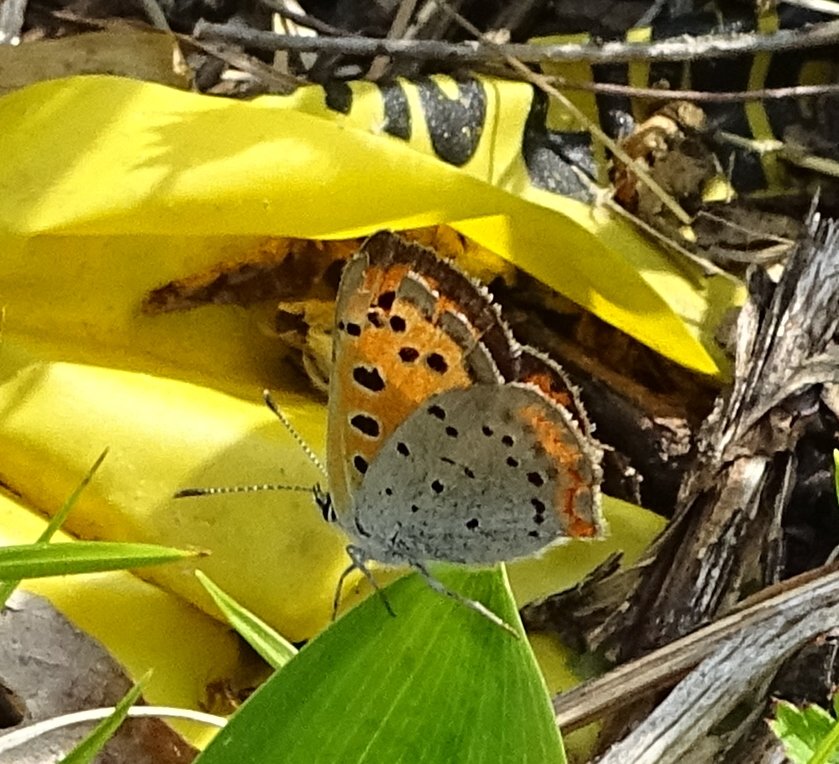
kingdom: Animalia
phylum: Arthropoda
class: Insecta
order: Lepidoptera
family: Lycaenidae
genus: Lycaena
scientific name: Lycaena phlaeas
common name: American Copper
